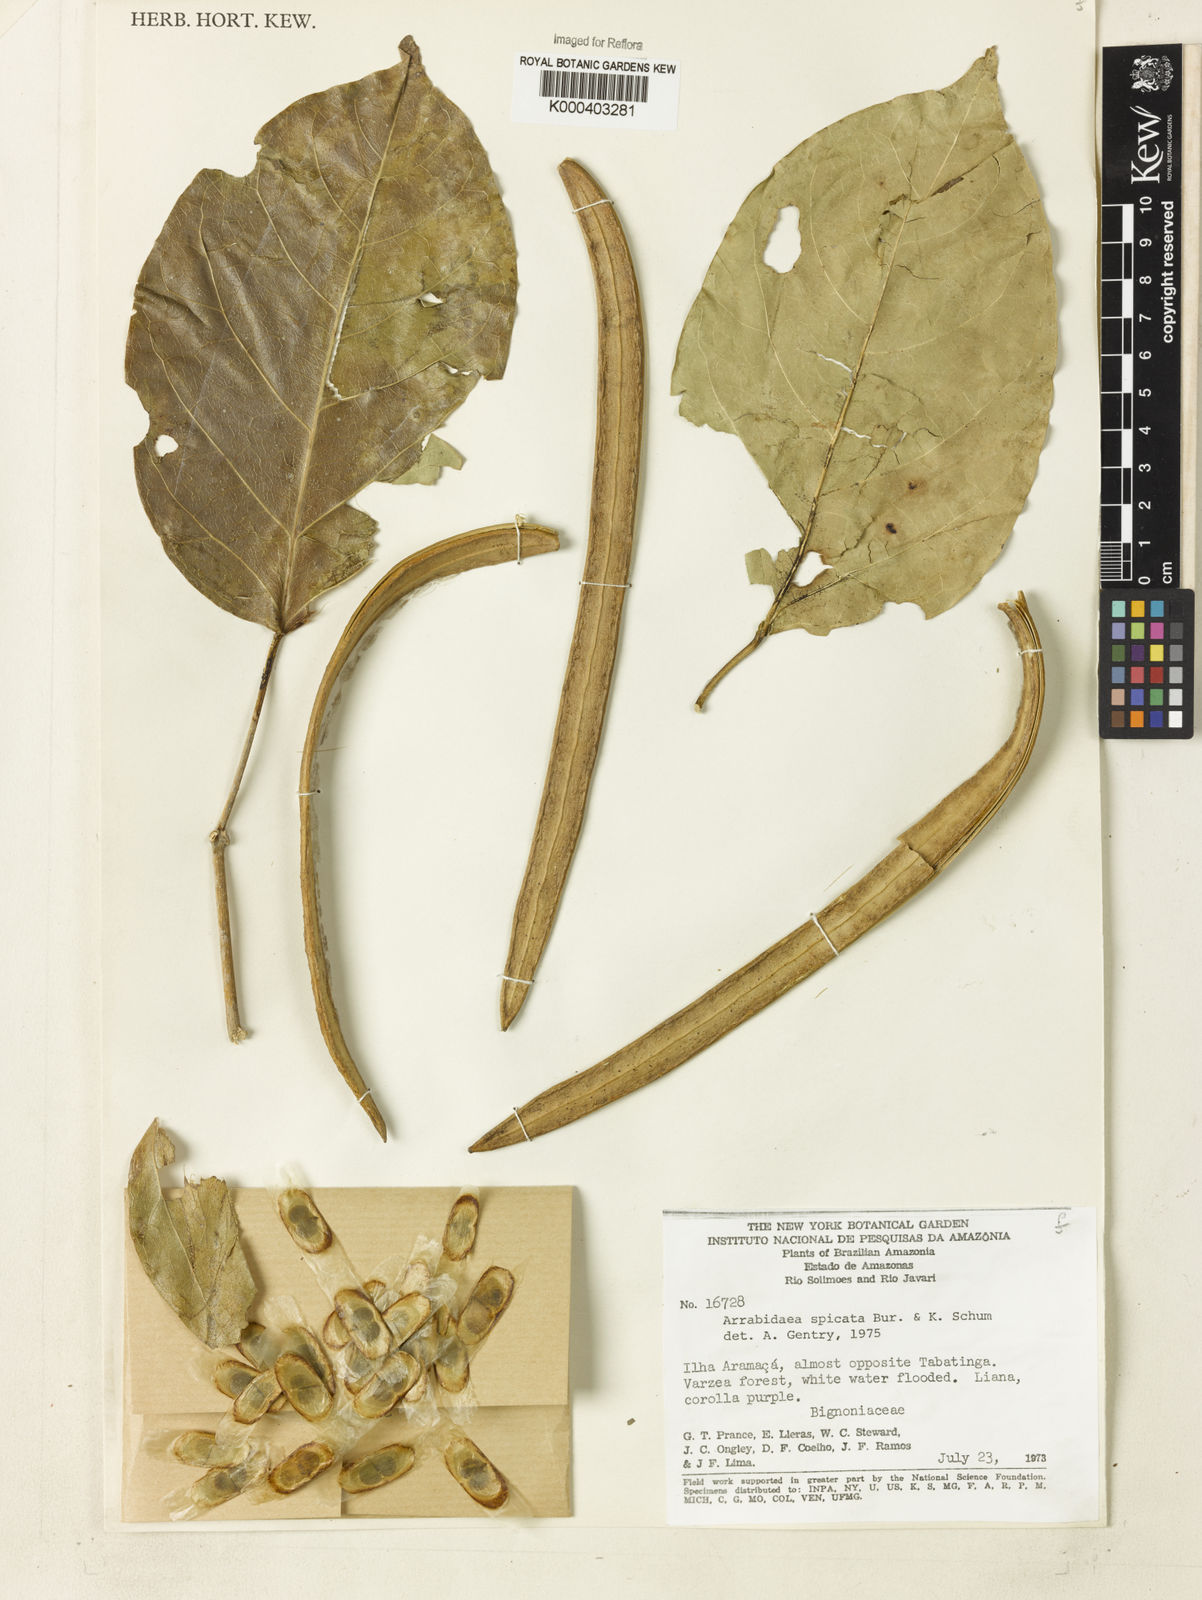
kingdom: Plantae
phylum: Tracheophyta
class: Magnoliopsida
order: Lamiales
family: Bignoniaceae
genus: Fridericia
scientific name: Fridericia spicata
